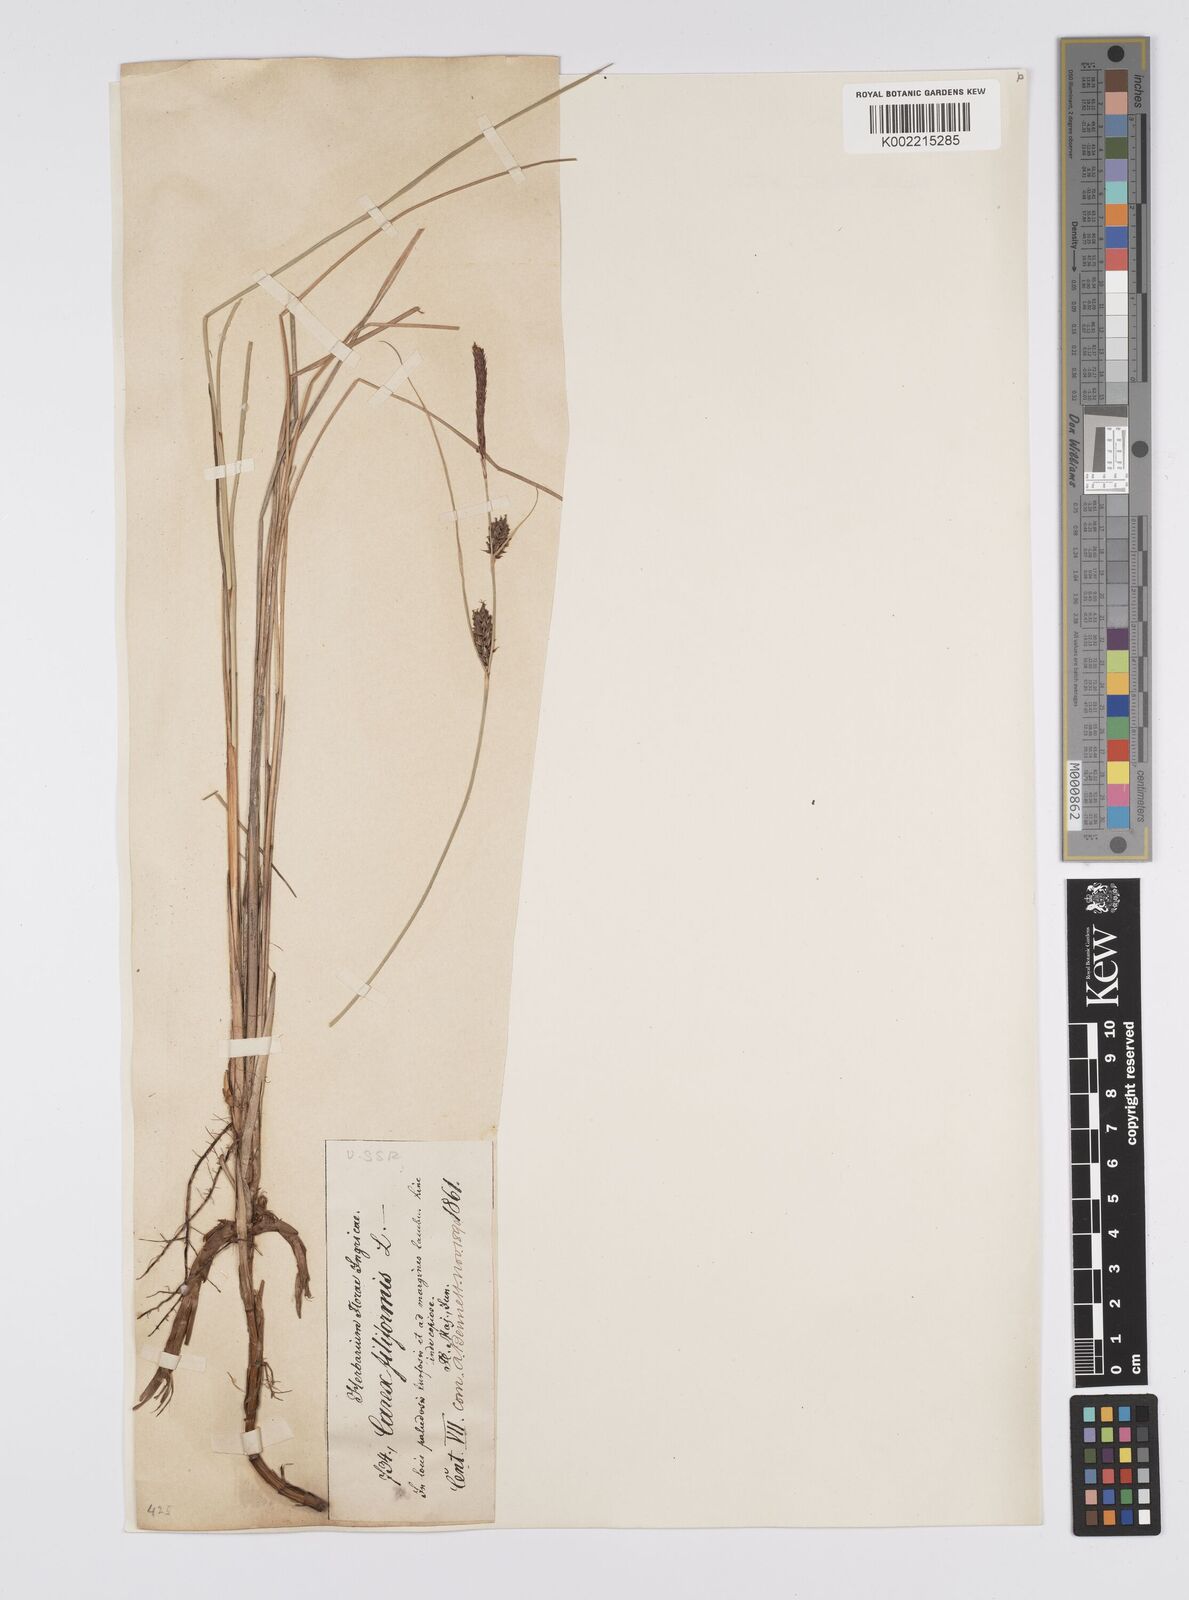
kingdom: Plantae
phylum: Tracheophyta
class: Liliopsida
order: Poales
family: Cyperaceae
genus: Carex
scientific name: Carex lasiocarpa
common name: Slender sedge
